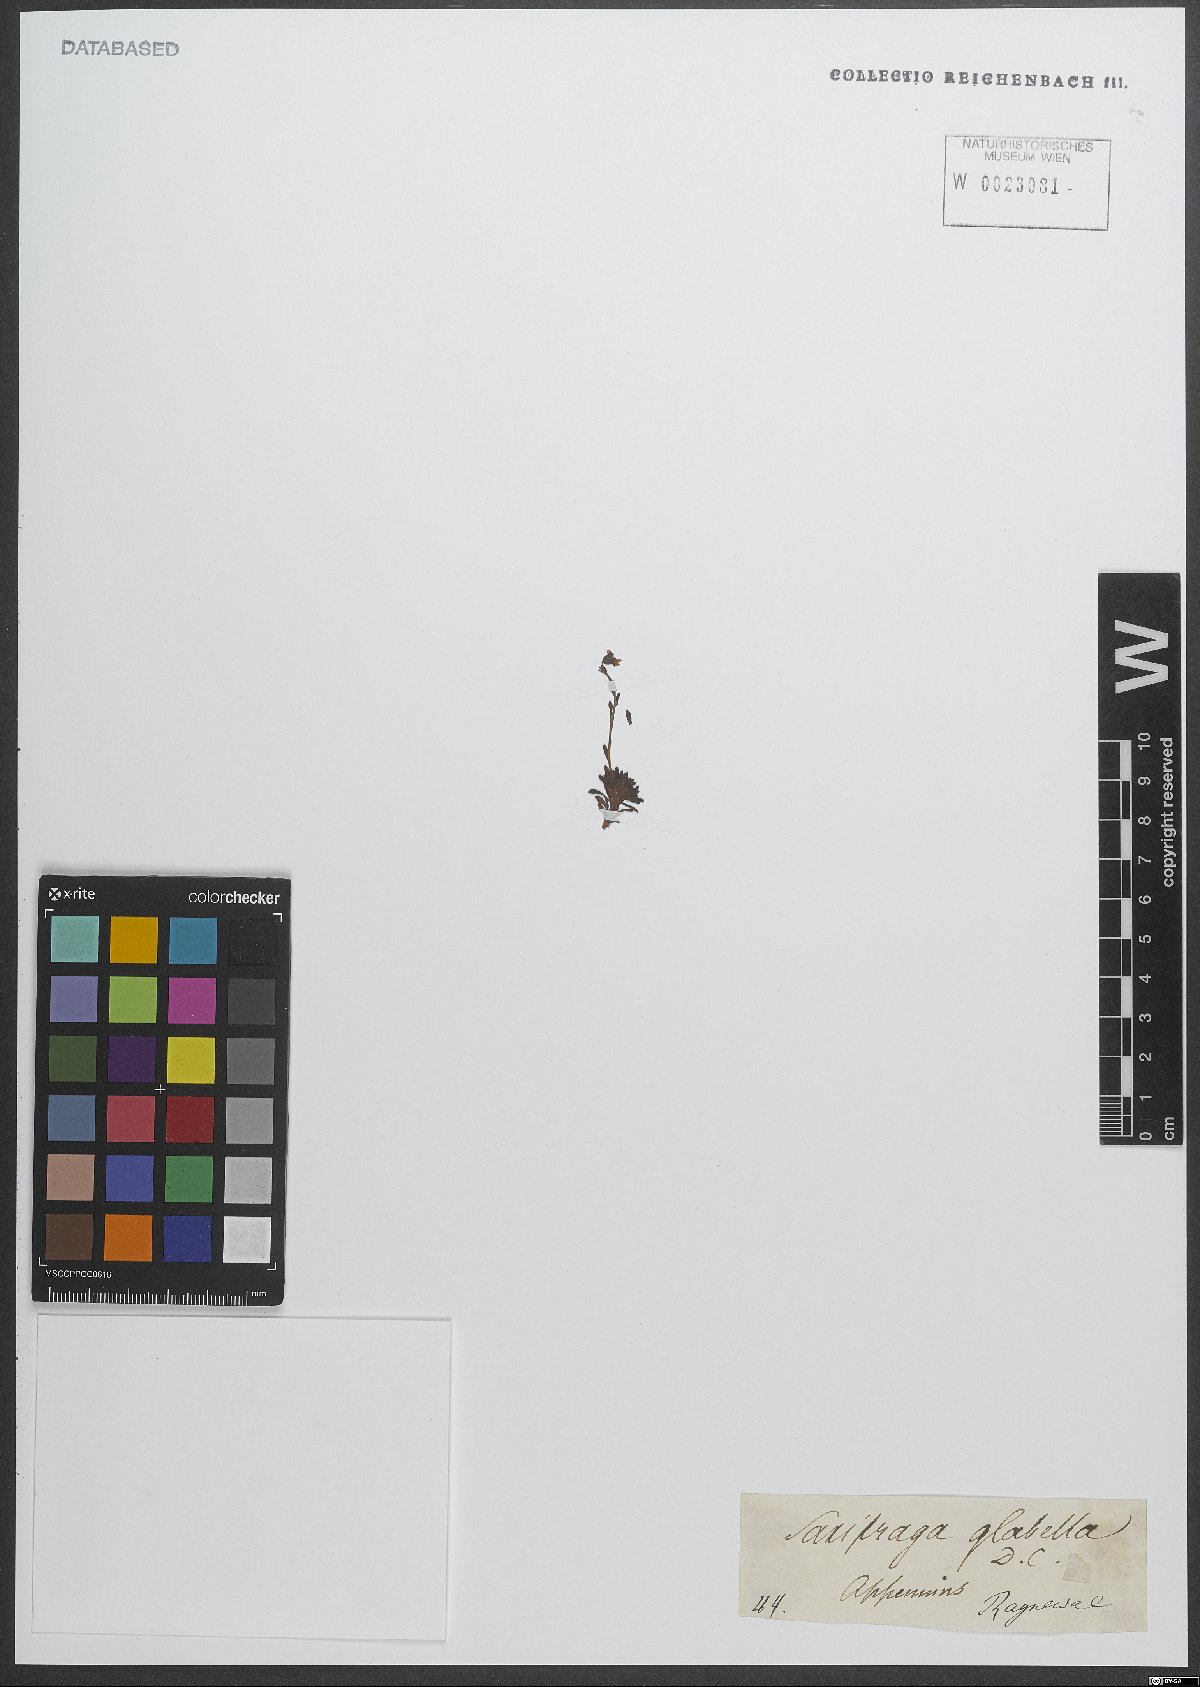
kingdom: Plantae
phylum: Tracheophyta
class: Magnoliopsida
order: Saxifragales
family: Saxifragaceae
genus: Saxifraga
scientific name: Saxifraga glabella
